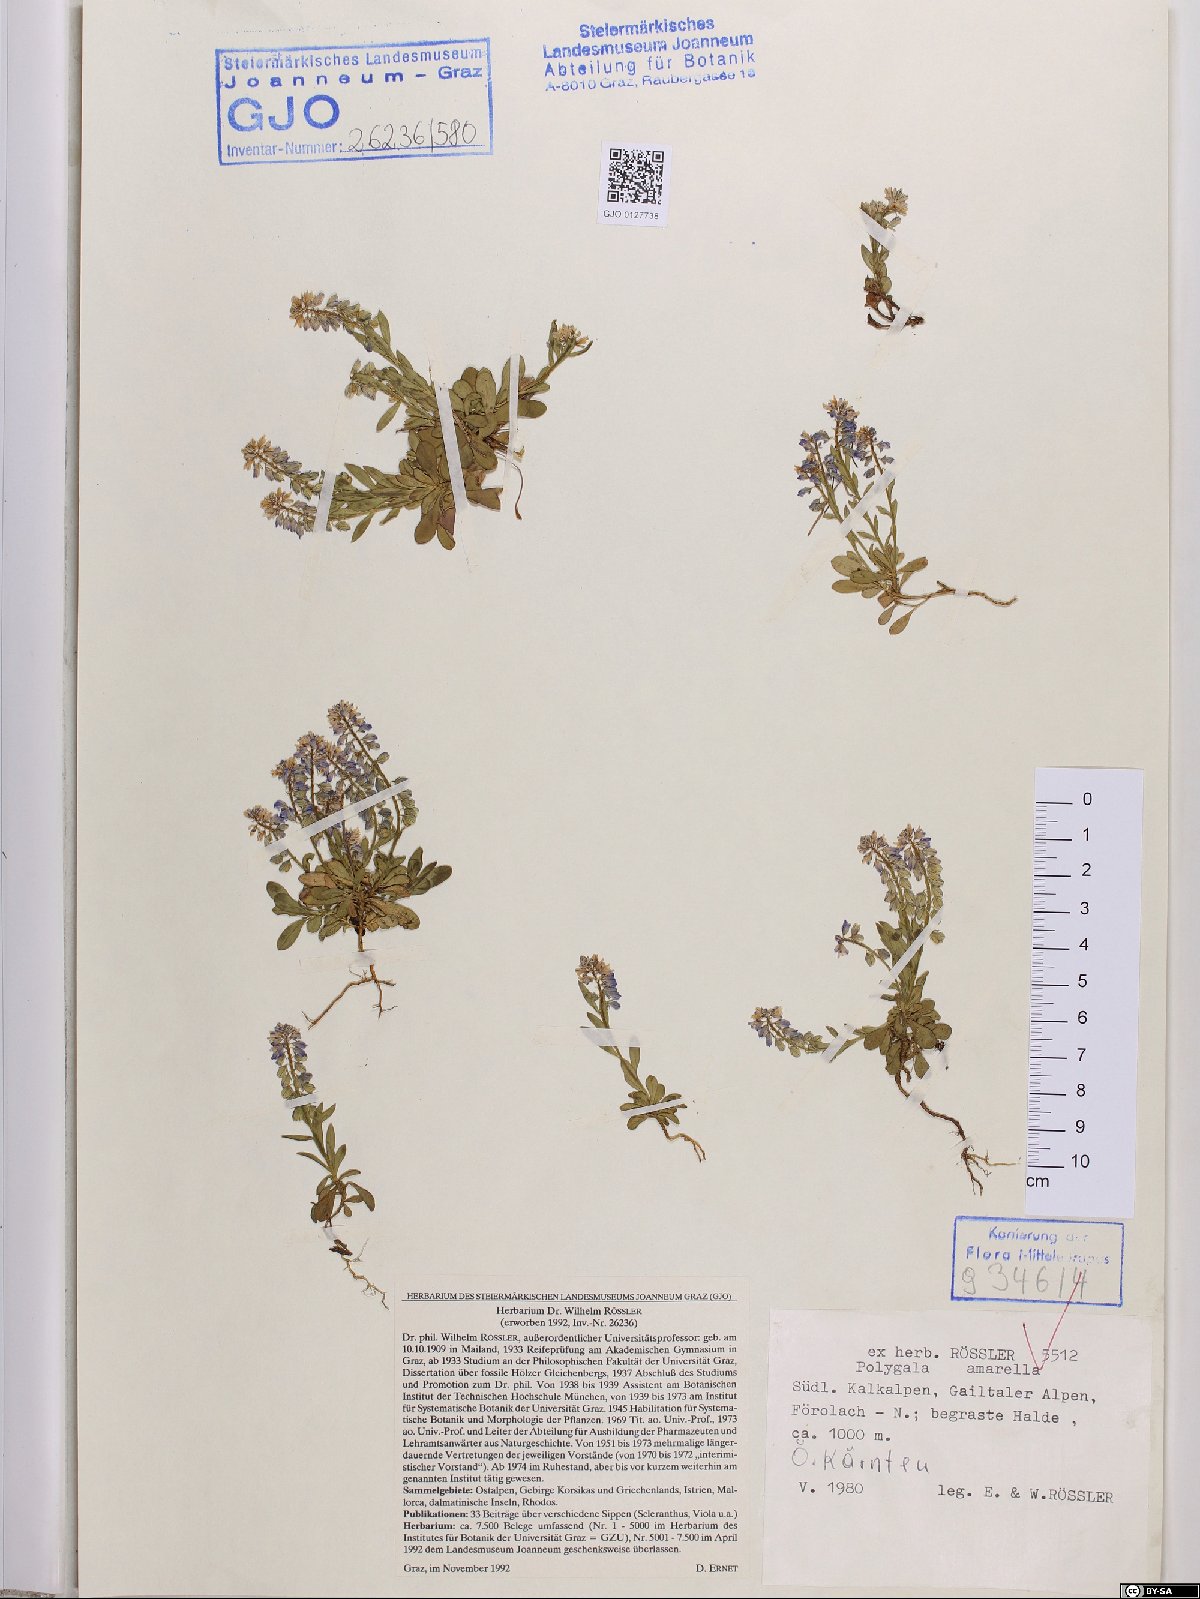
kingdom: Plantae
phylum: Tracheophyta
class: Magnoliopsida
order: Fabales
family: Polygalaceae
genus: Polygala
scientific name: Polygala amarella
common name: Dwarf milkwort
